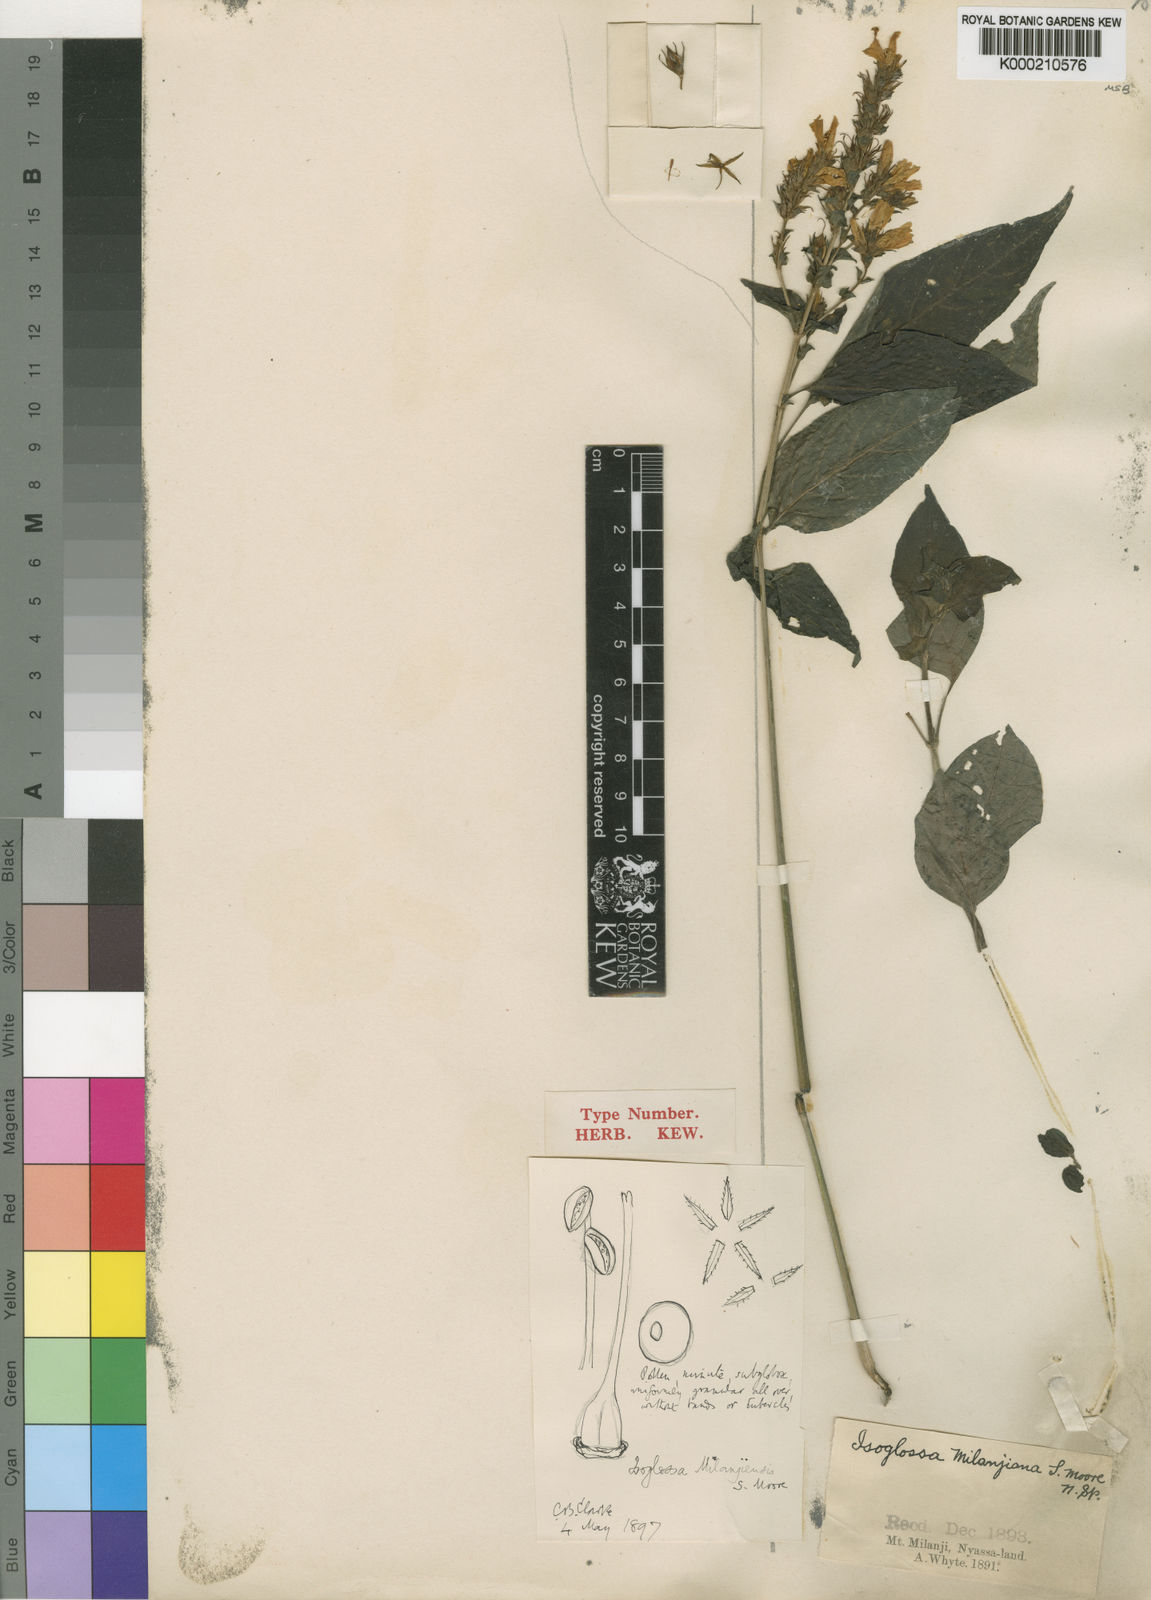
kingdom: Plantae
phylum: Tracheophyta
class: Magnoliopsida
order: Lamiales
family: Acanthaceae
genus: Isoglossa
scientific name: Isoglossa milanjiensis
